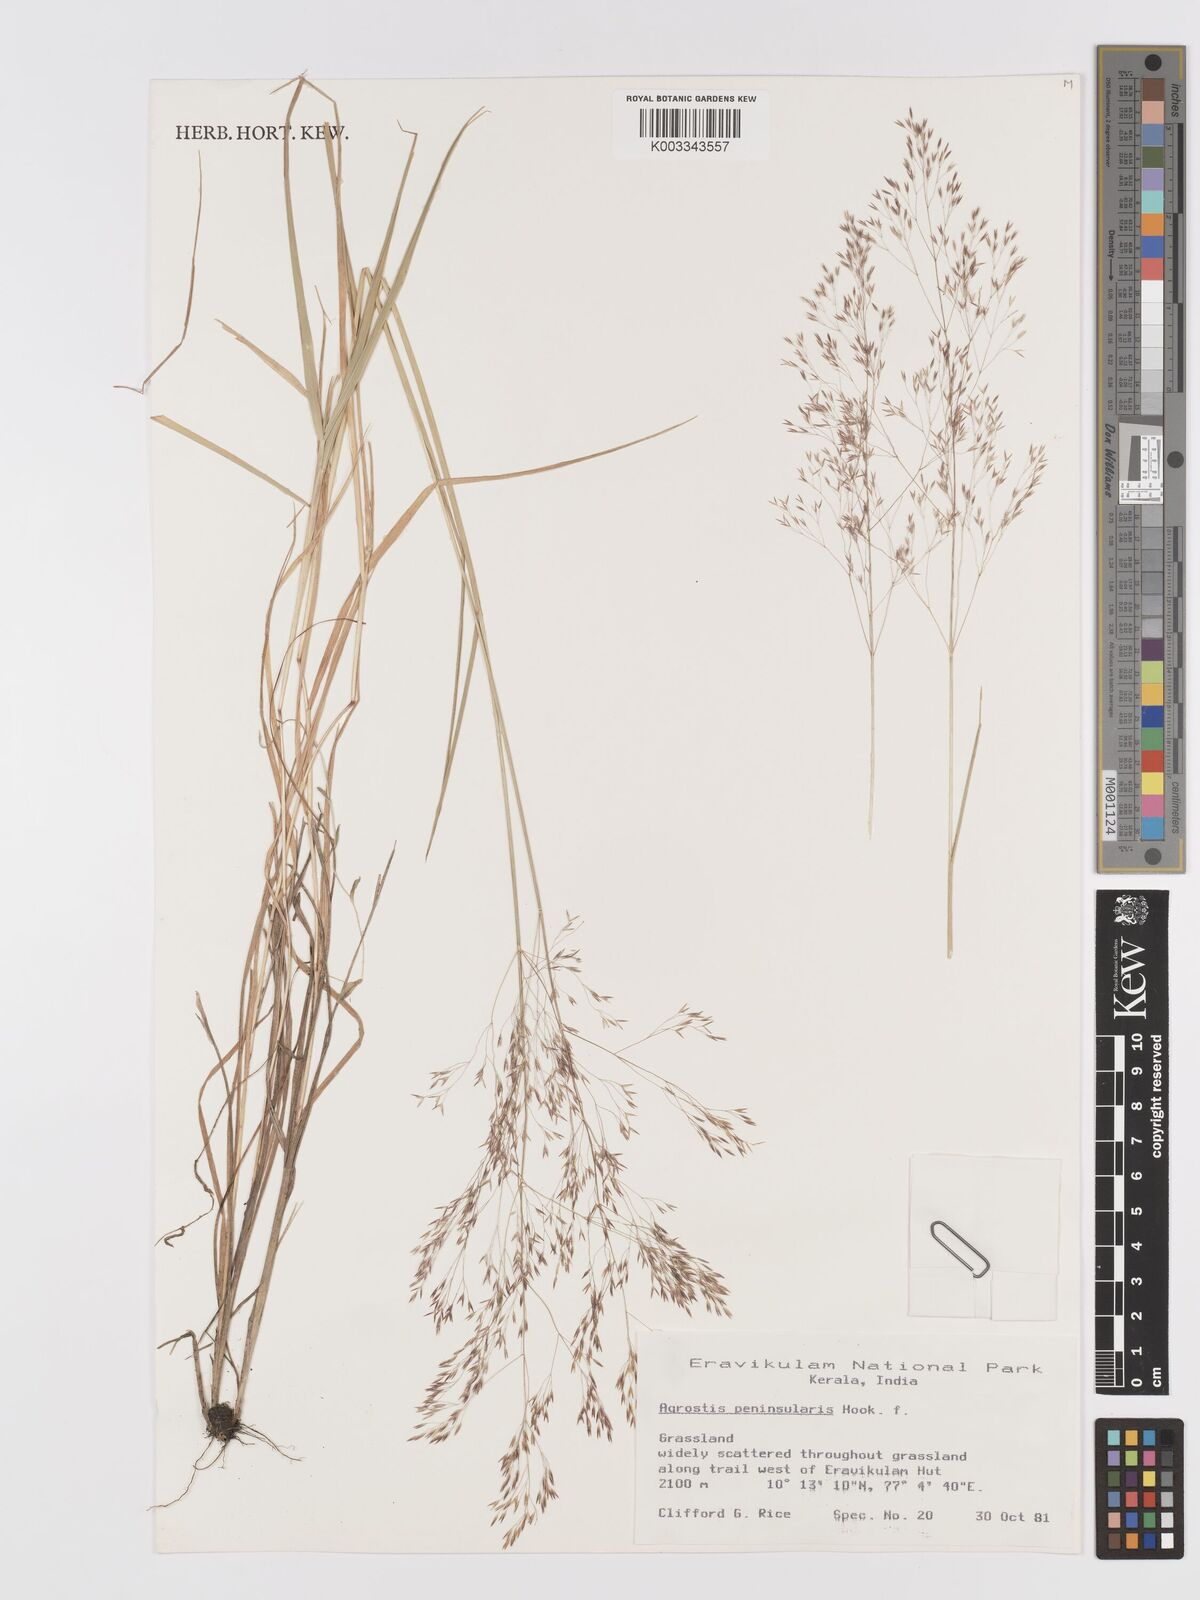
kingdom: Plantae
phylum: Tracheophyta
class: Liliopsida
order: Poales
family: Poaceae
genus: Agrostis
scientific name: Agrostis peninsularis
